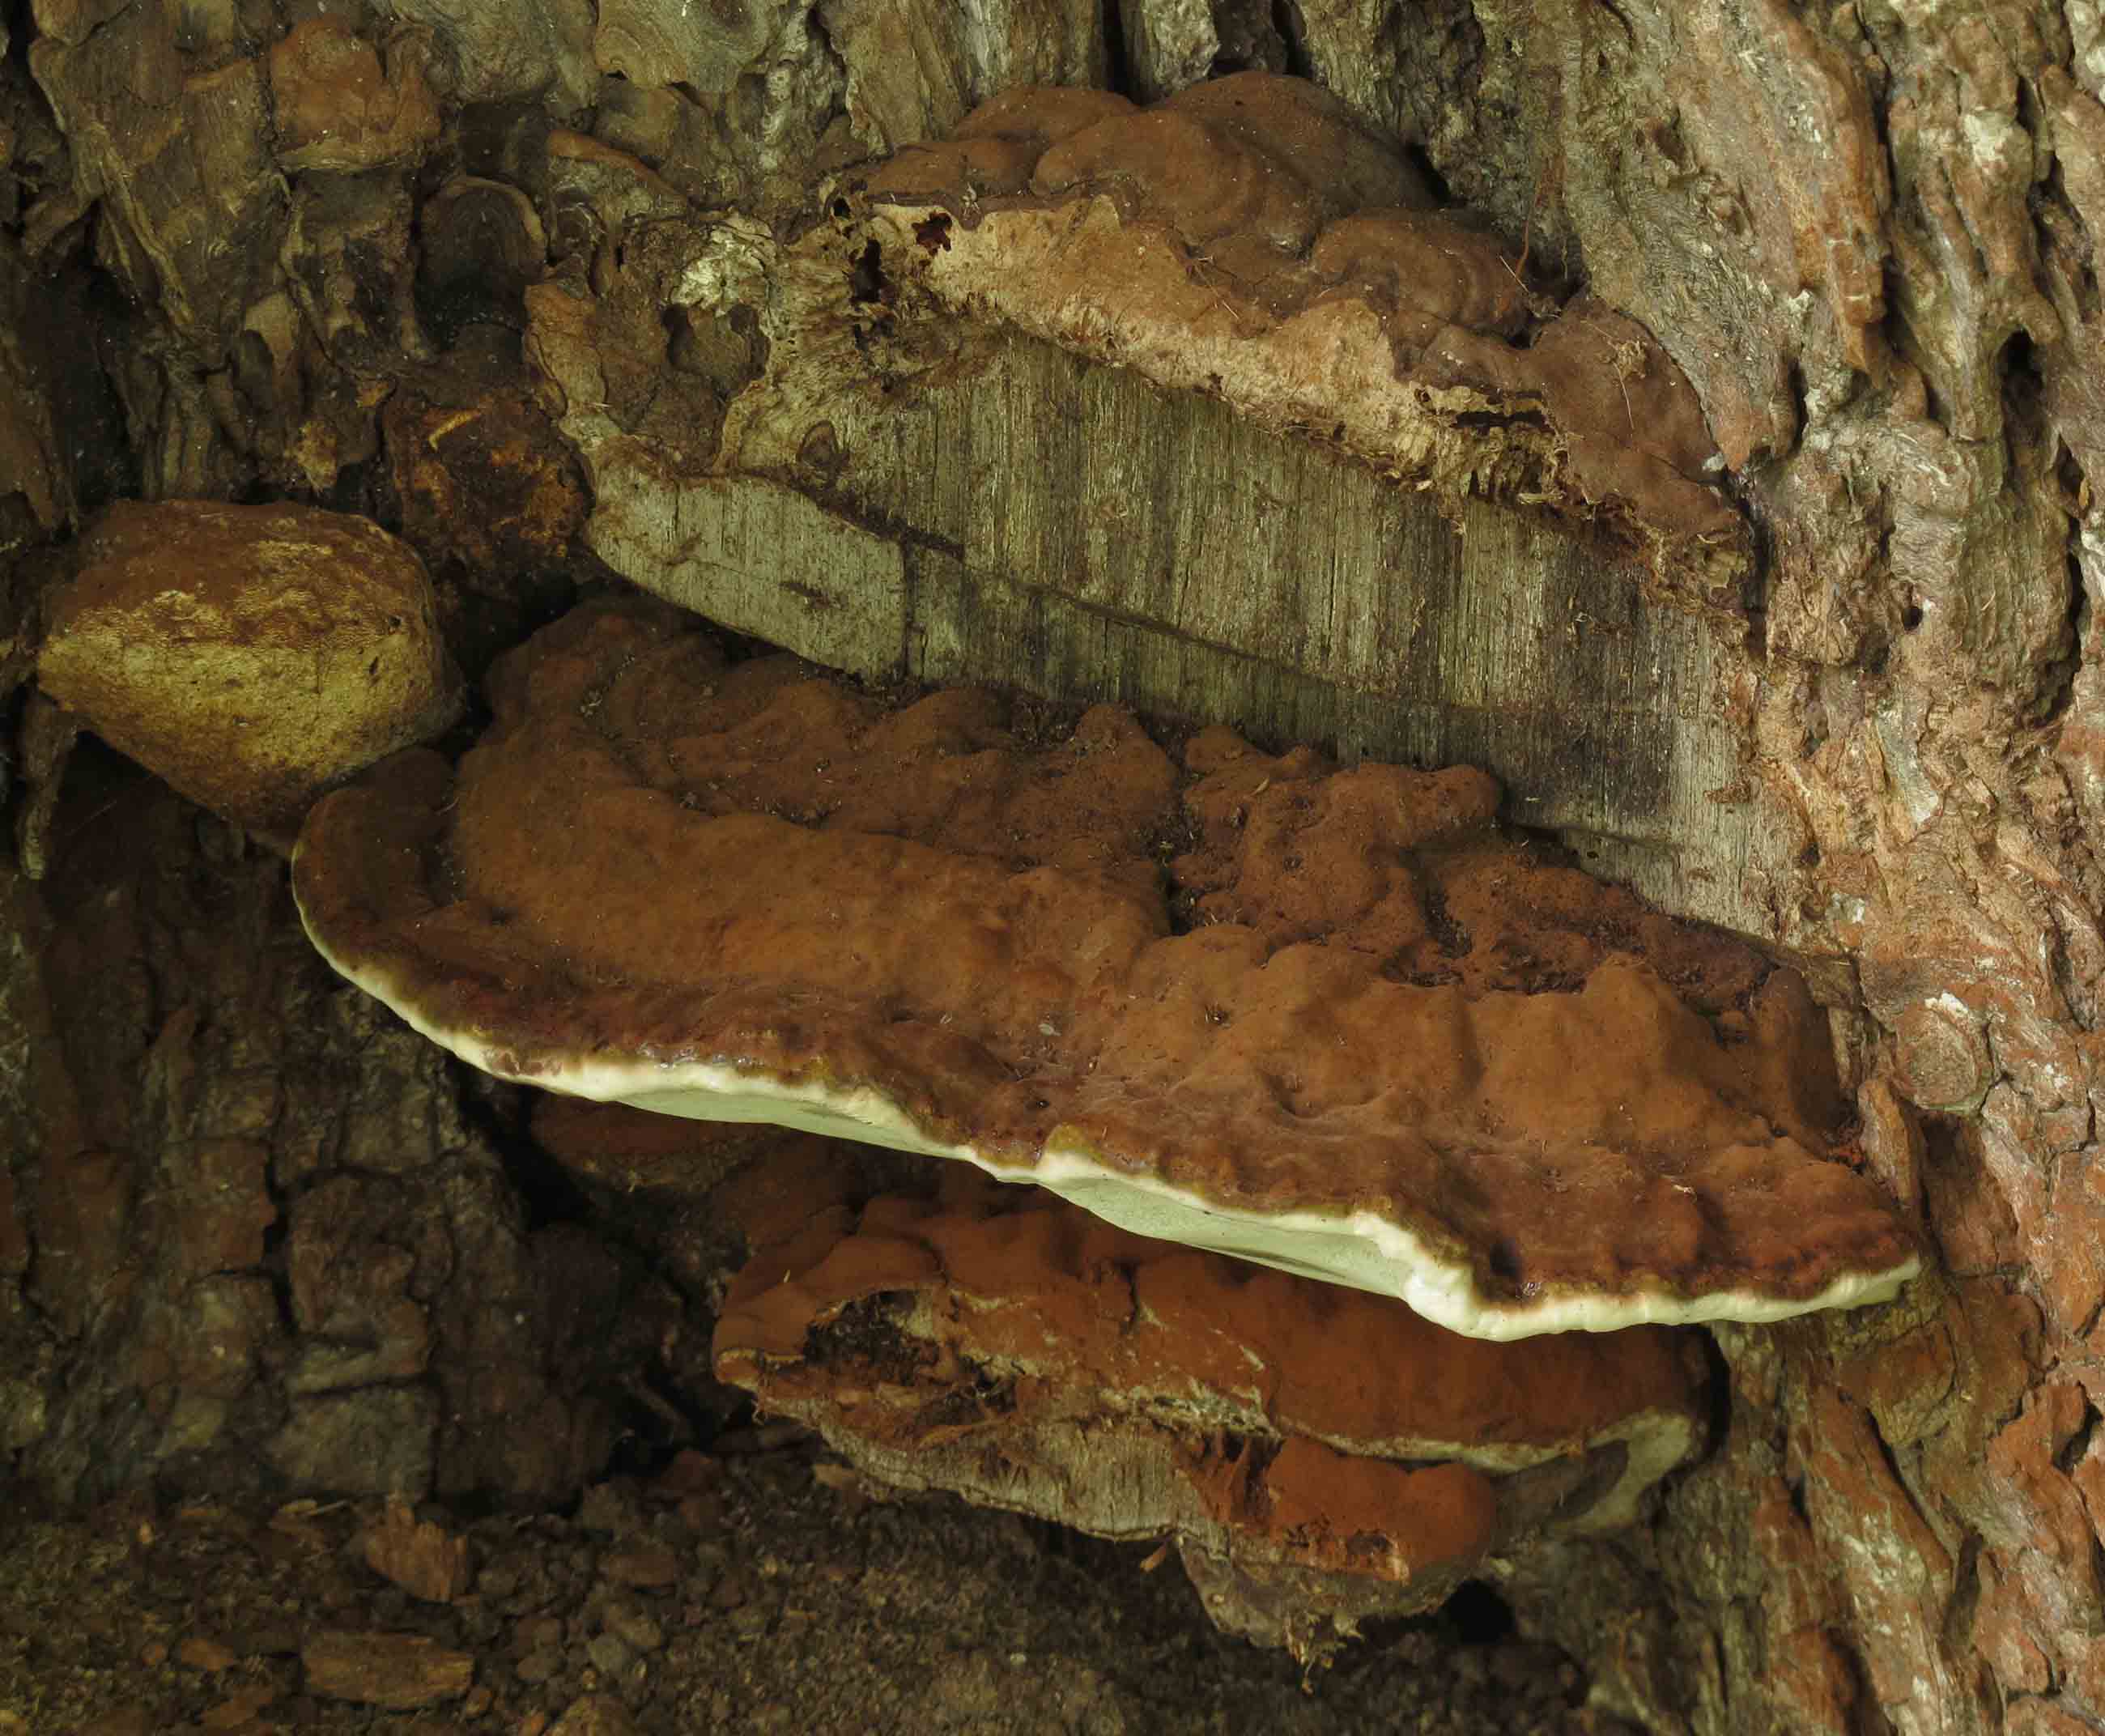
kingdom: Fungi
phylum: Basidiomycota
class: Agaricomycetes
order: Polyporales
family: Polyporaceae
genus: Ganoderma
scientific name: Ganoderma adspersum
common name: grov lakporesvamp
